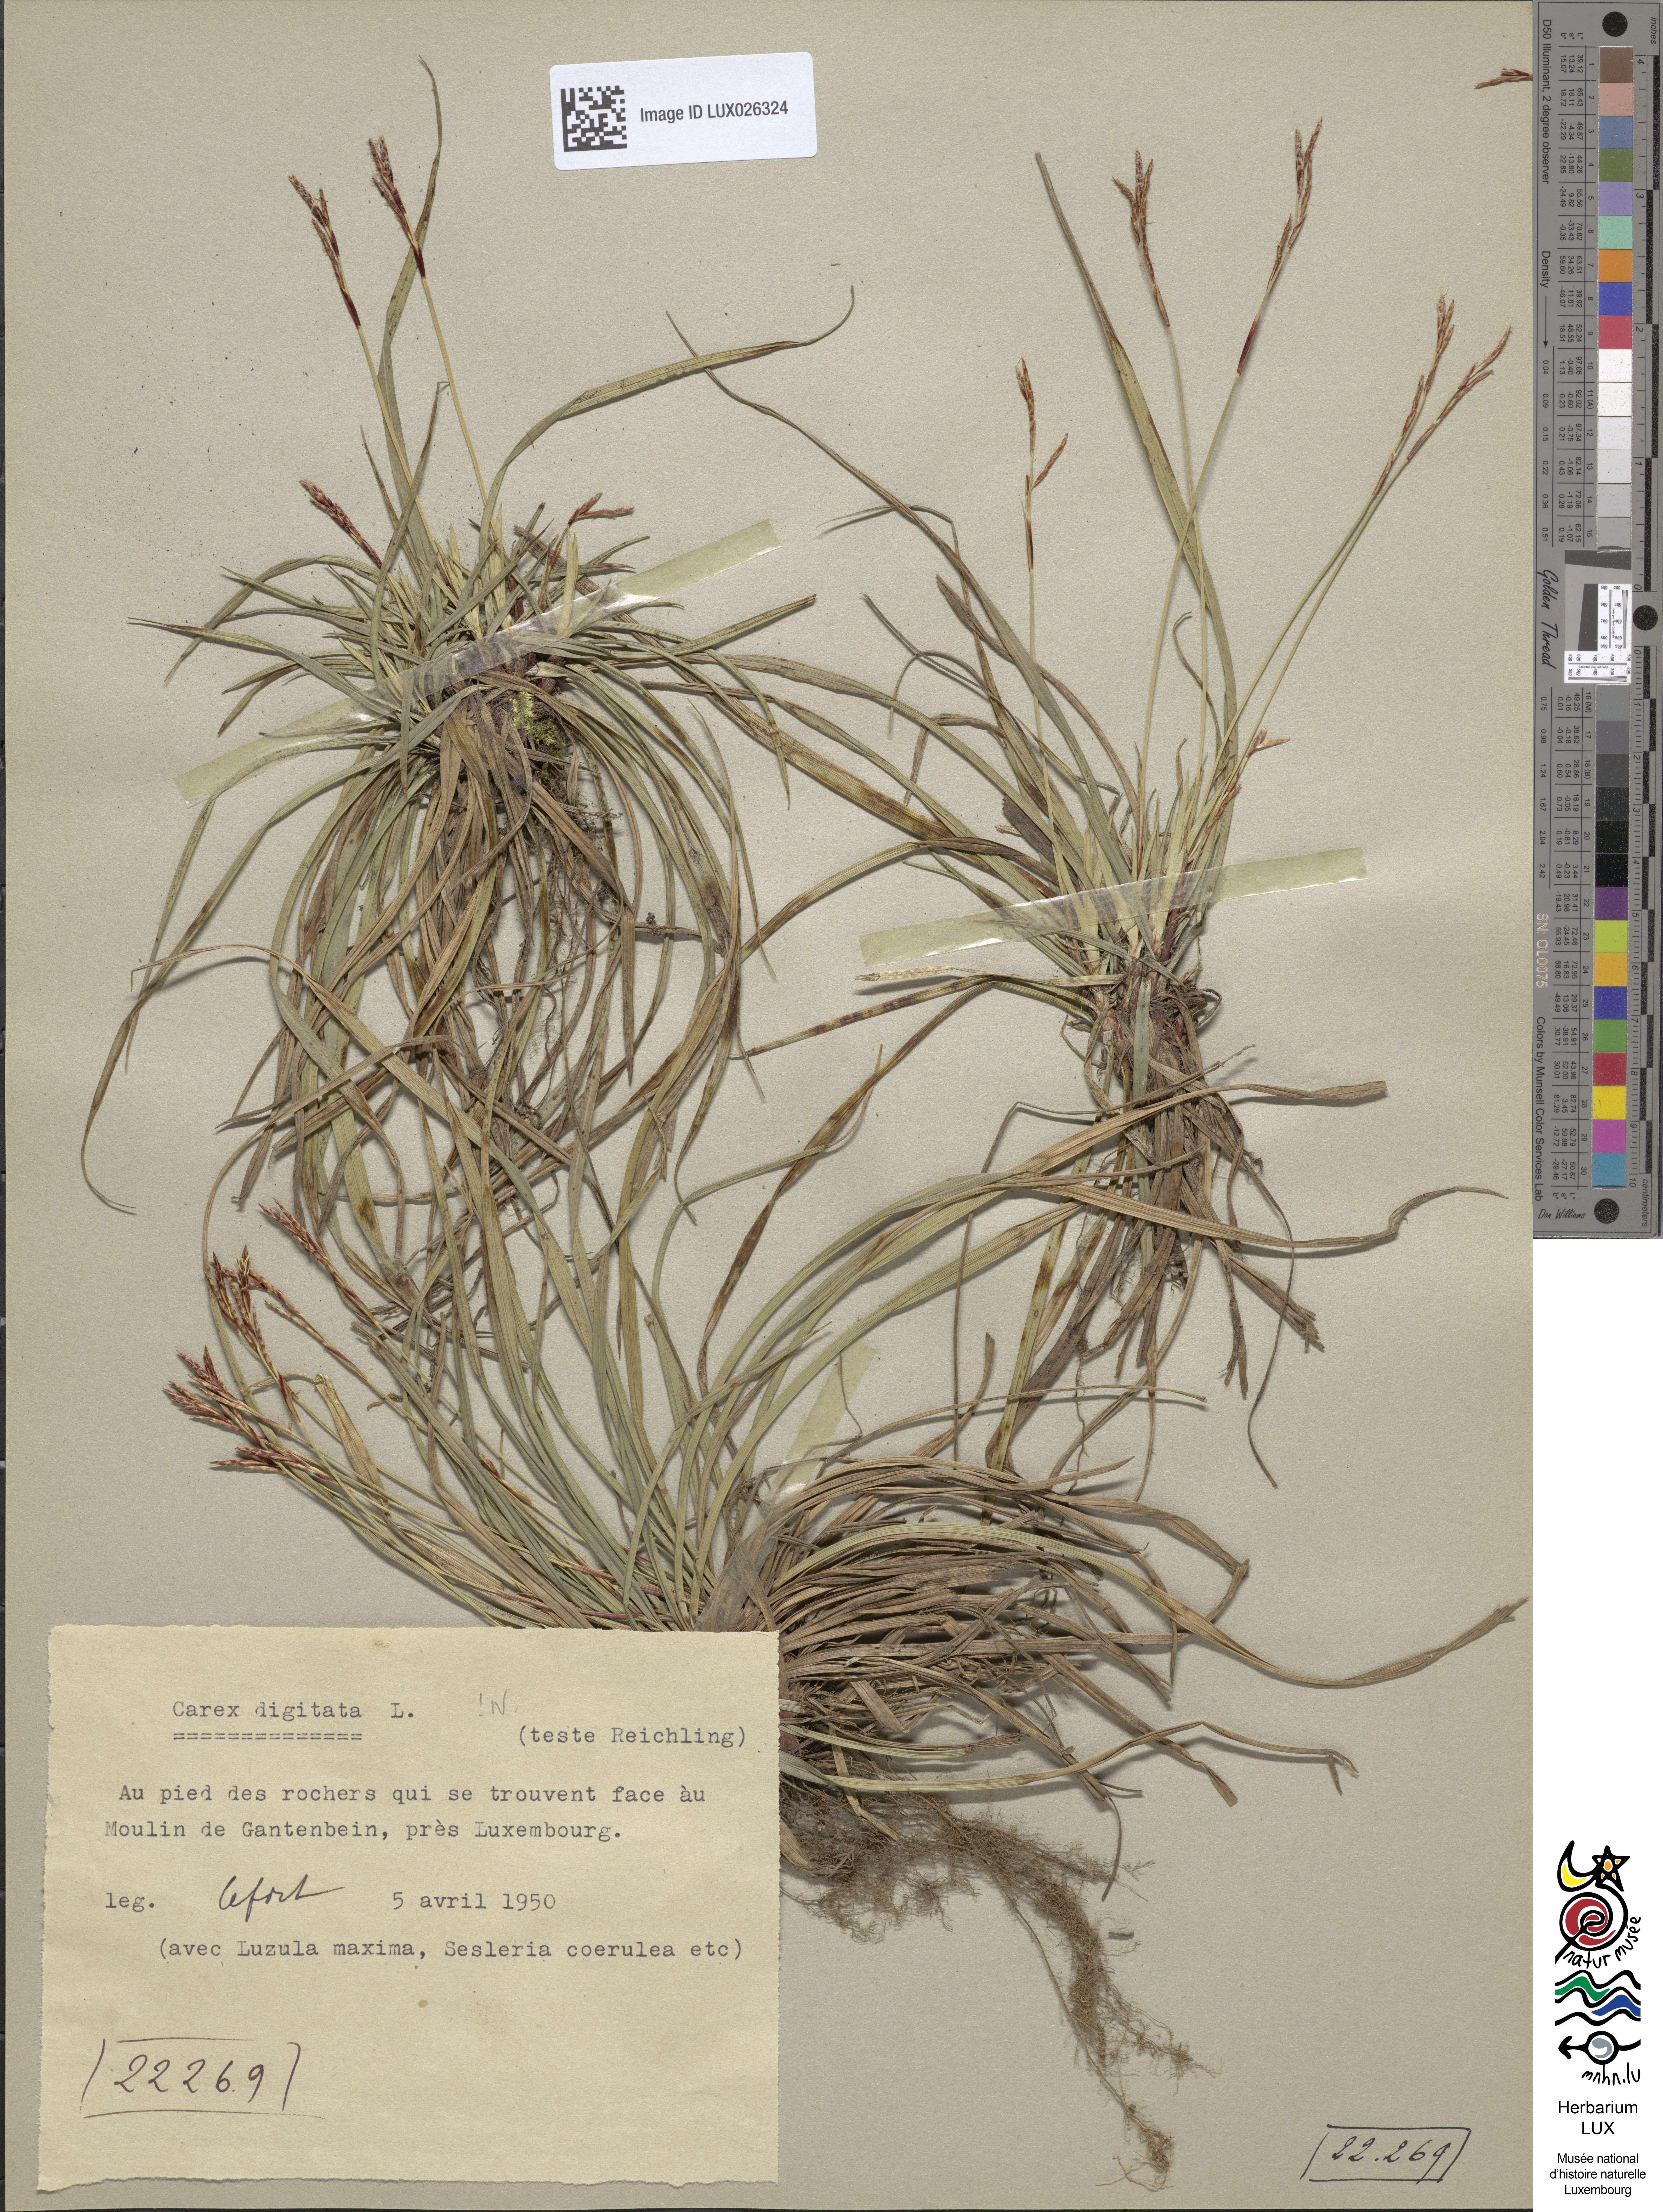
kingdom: Plantae
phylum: Tracheophyta
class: Liliopsida
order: Poales
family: Cyperaceae
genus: Carex
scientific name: Carex digitata
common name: Fingered sedge
